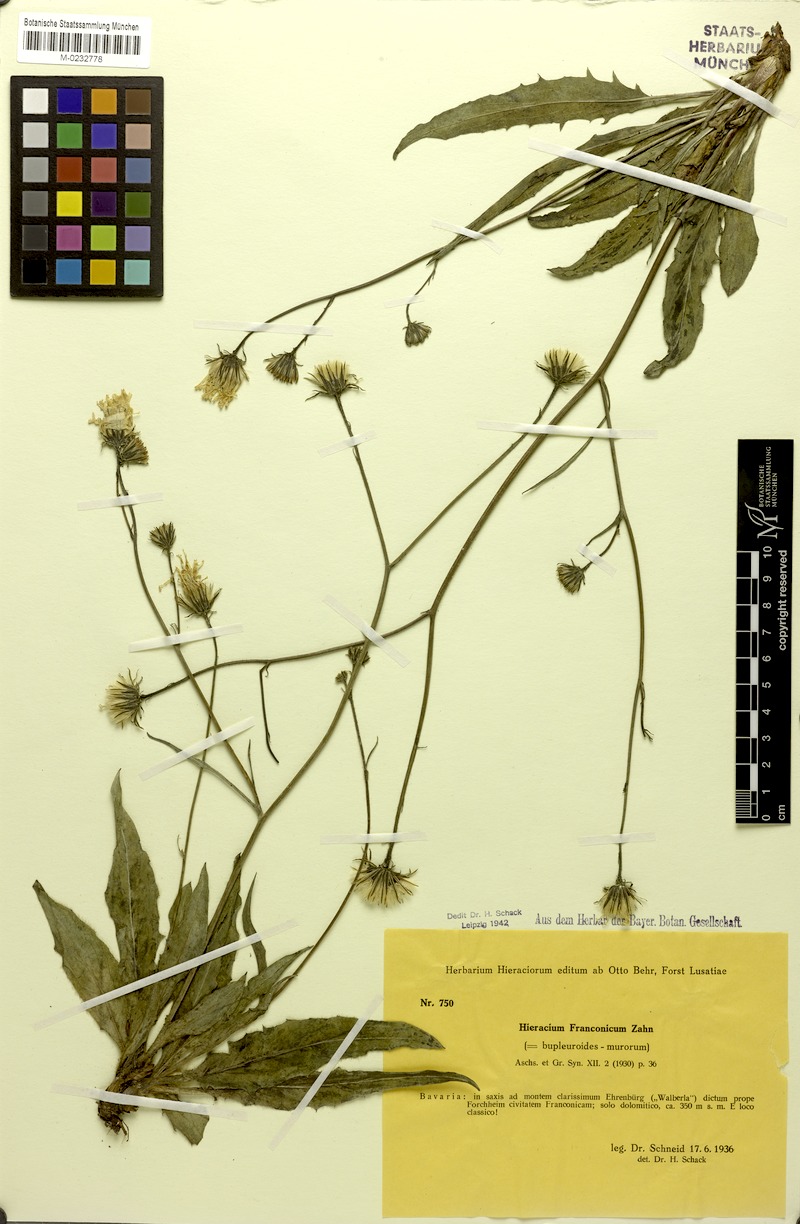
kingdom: Plantae
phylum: Tracheophyta
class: Magnoliopsida
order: Asterales
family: Asteraceae
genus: Hieracium
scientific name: Hieracium franconicum
